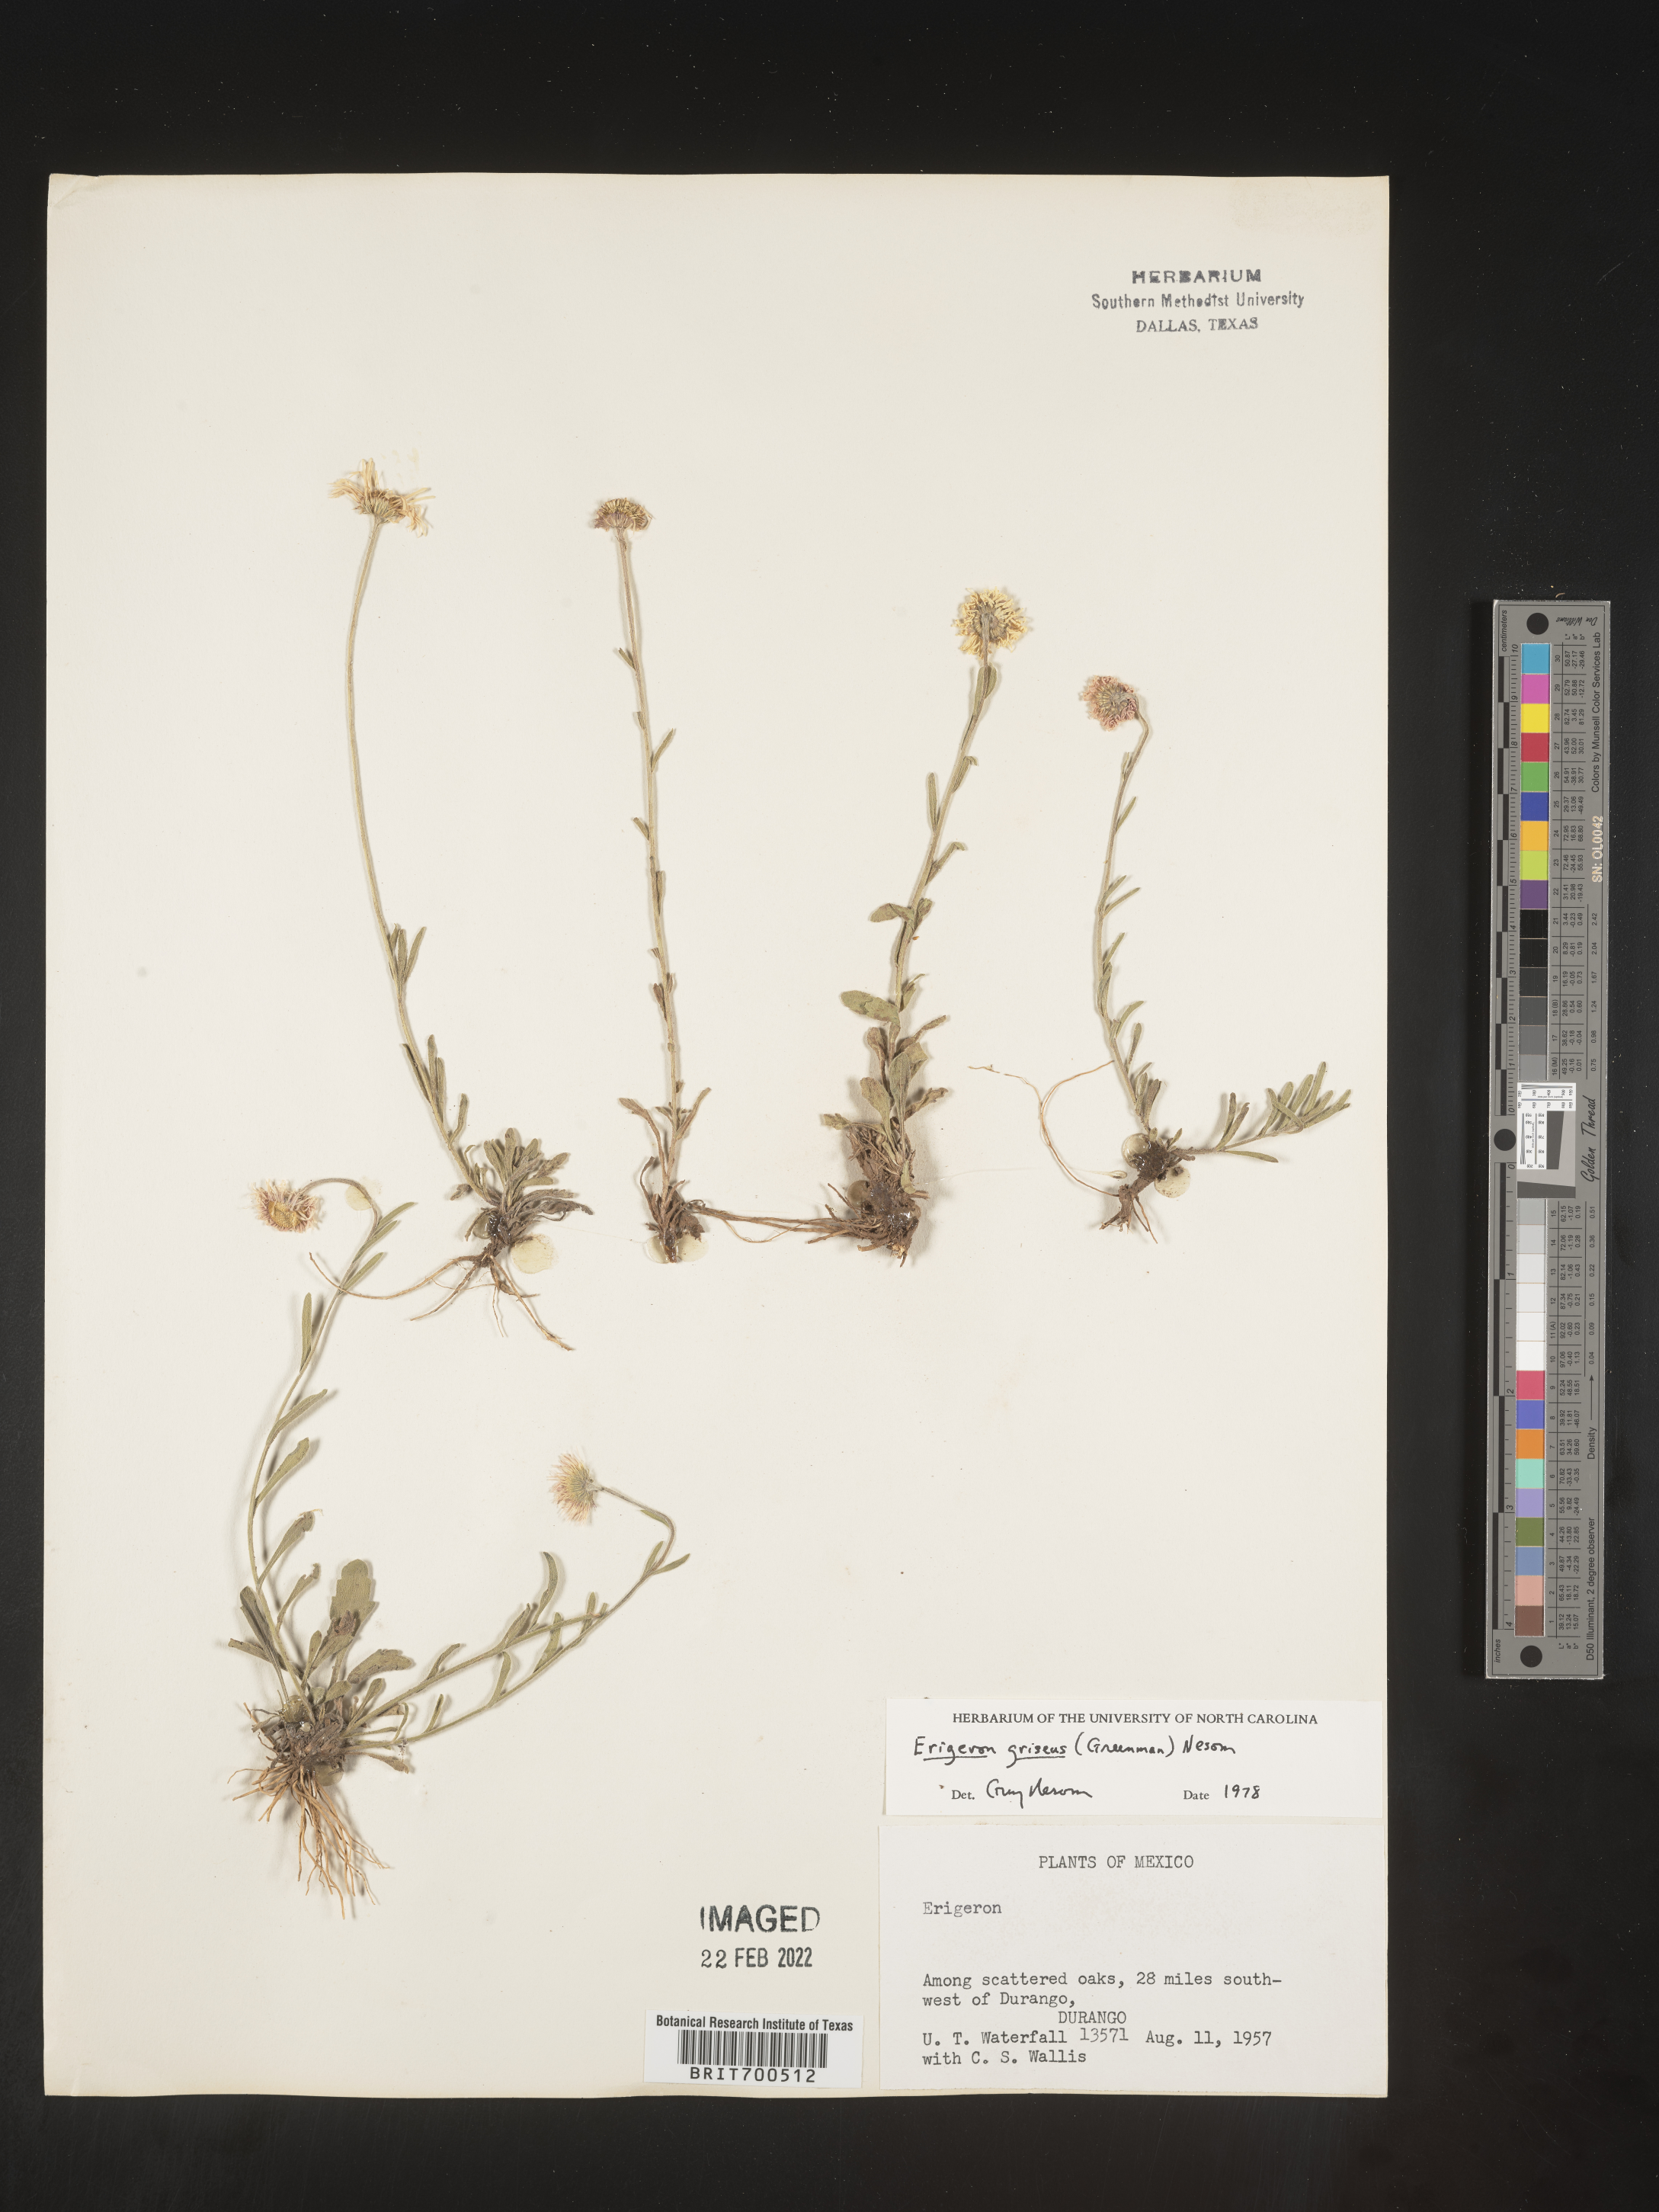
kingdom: Plantae
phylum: Tracheophyta
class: Magnoliopsida
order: Asterales
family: Asteraceae
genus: Erigeron
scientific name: Erigeron
